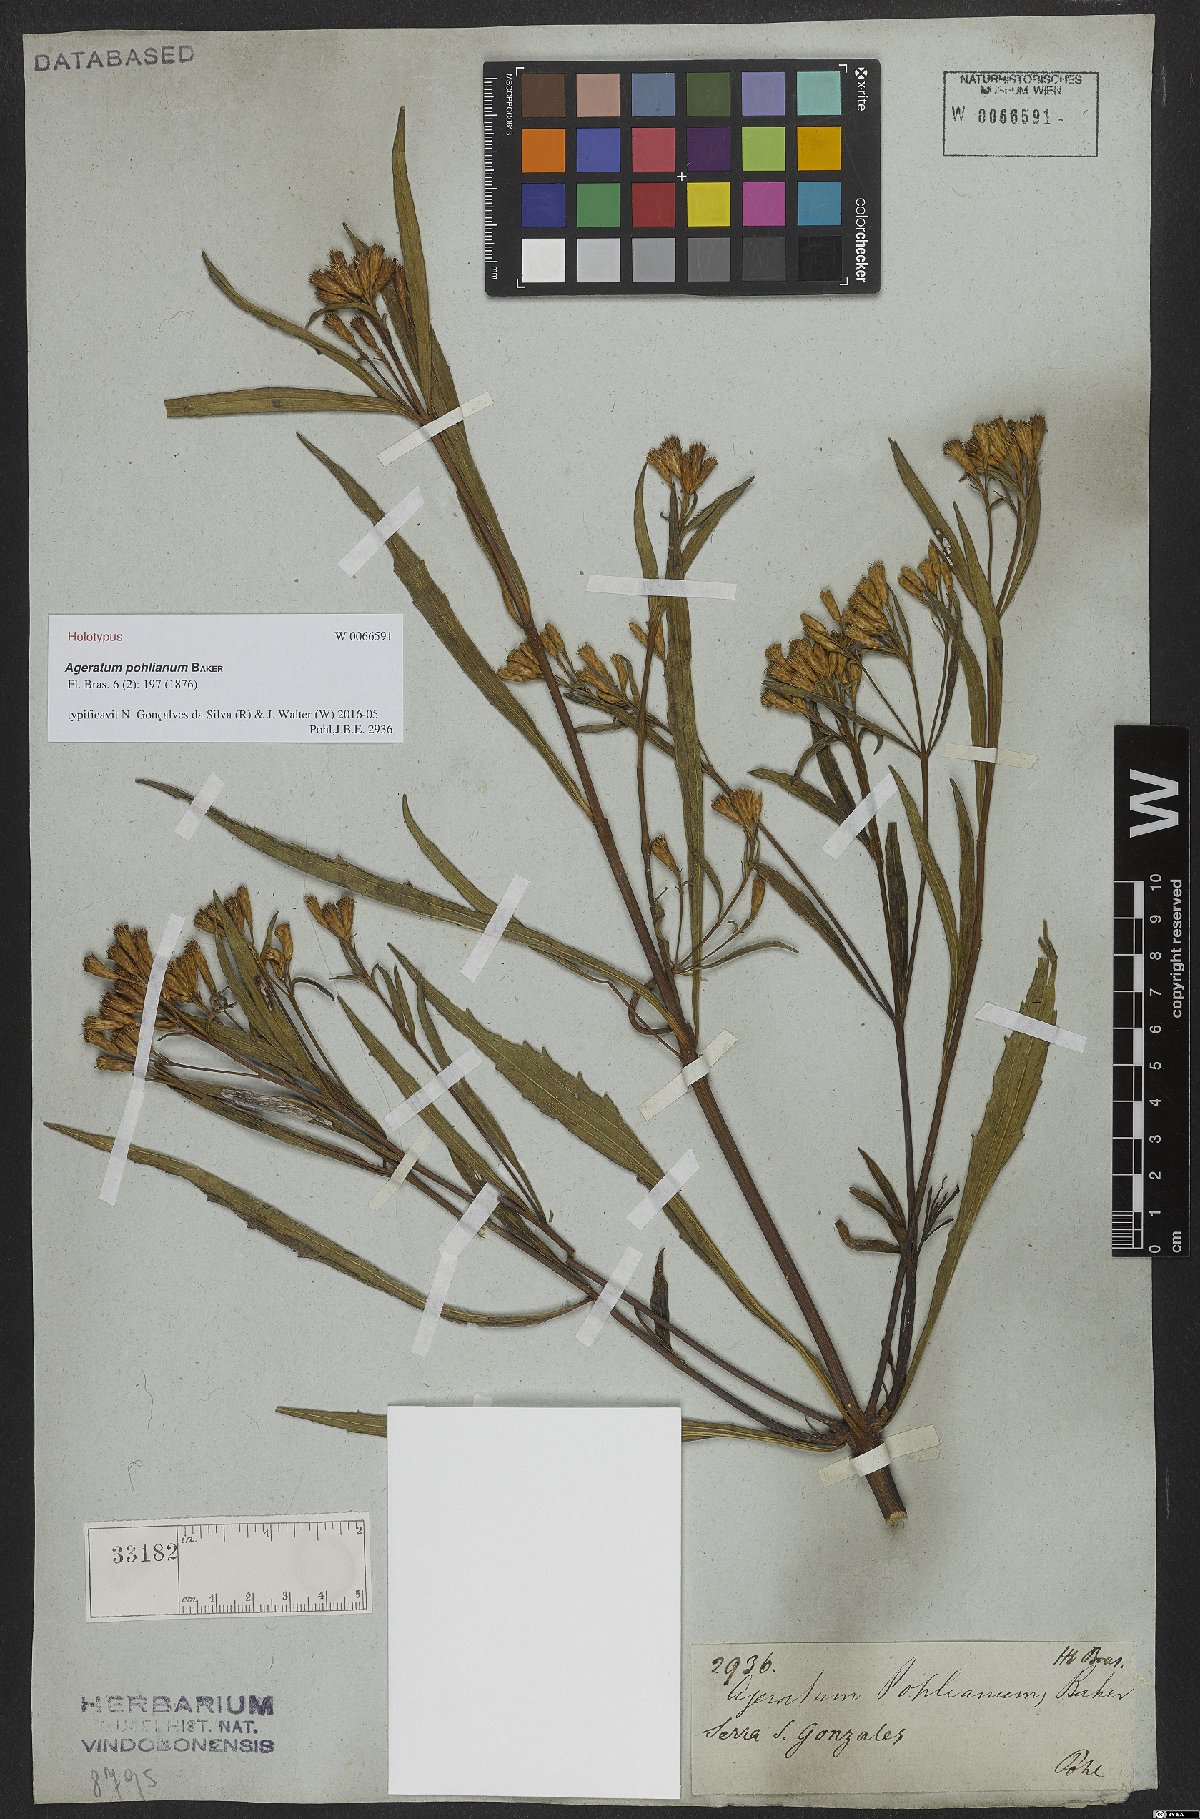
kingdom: Plantae
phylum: Tracheophyta
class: Magnoliopsida
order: Asterales
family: Asteraceae
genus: Ageratum
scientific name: Ageratum pohlianum
